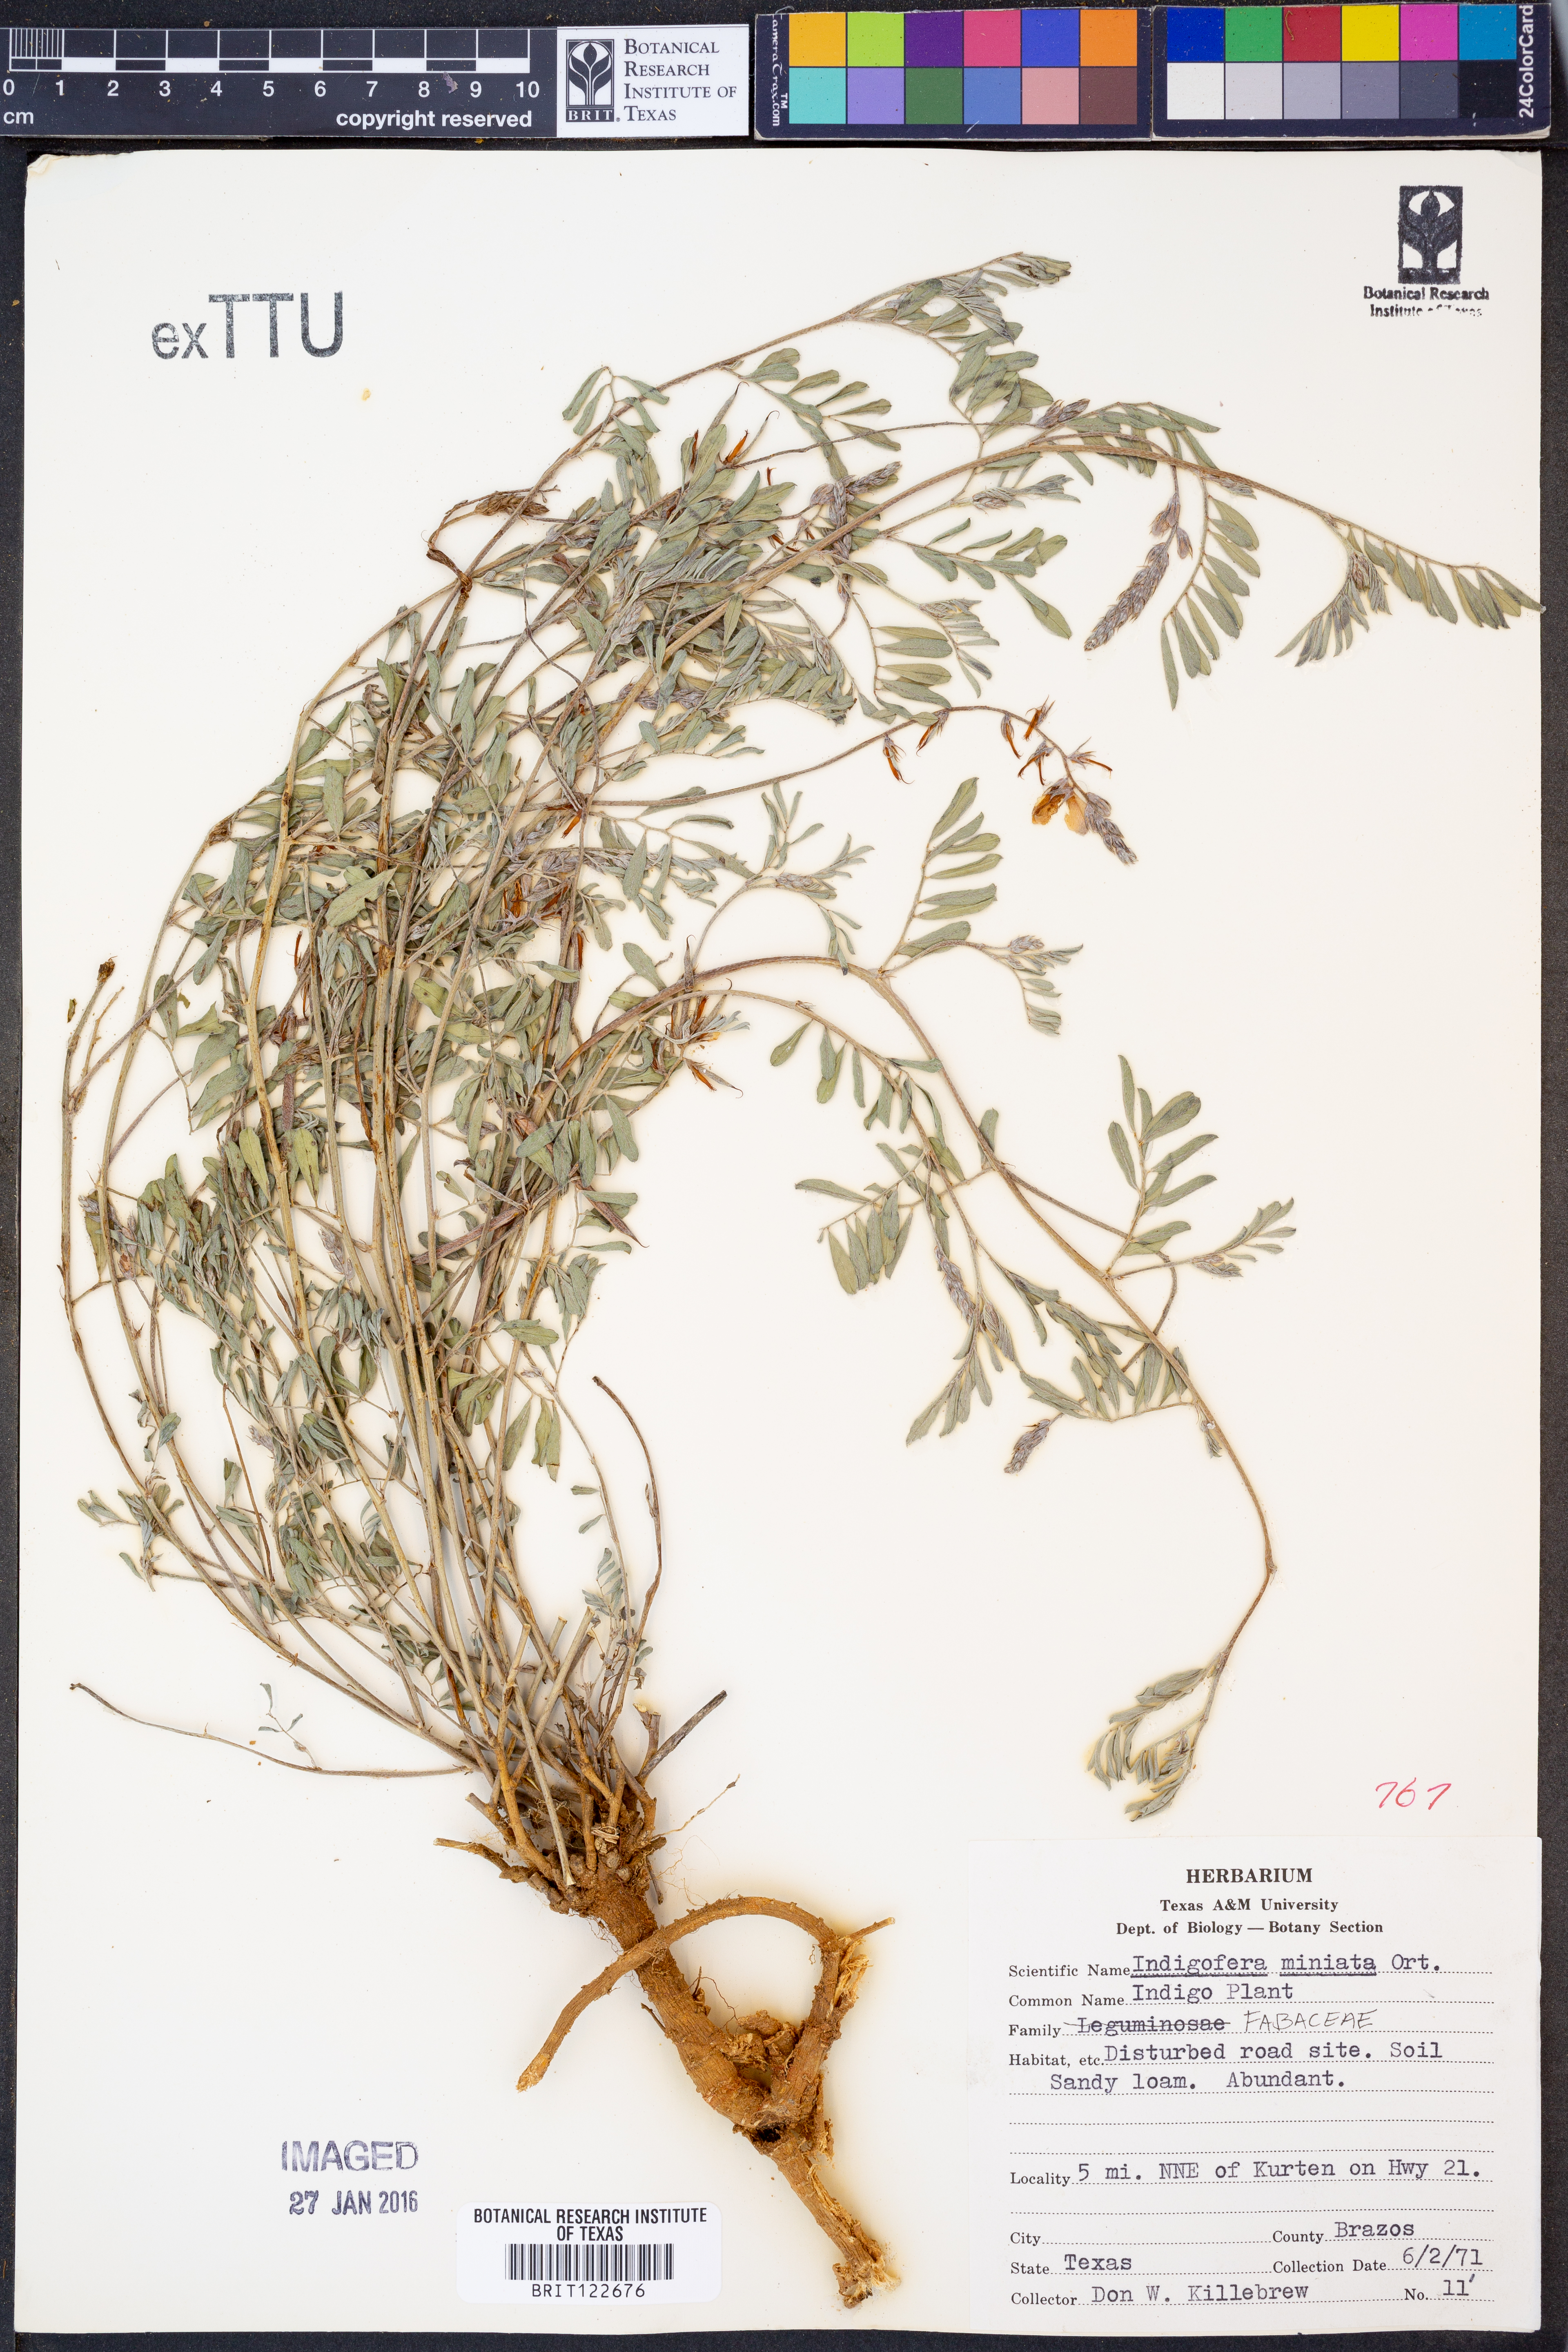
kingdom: Plantae
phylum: Tracheophyta
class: Magnoliopsida
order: Fabales
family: Fabaceae
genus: Indigofera
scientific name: Indigofera miniata
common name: Coast indigo
